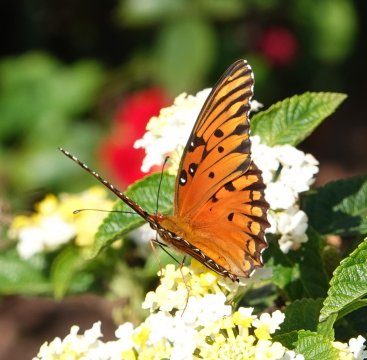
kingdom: Animalia
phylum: Arthropoda
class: Insecta
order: Lepidoptera
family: Nymphalidae
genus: Dione
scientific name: Dione vanillae
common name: Gulf Fritillary
